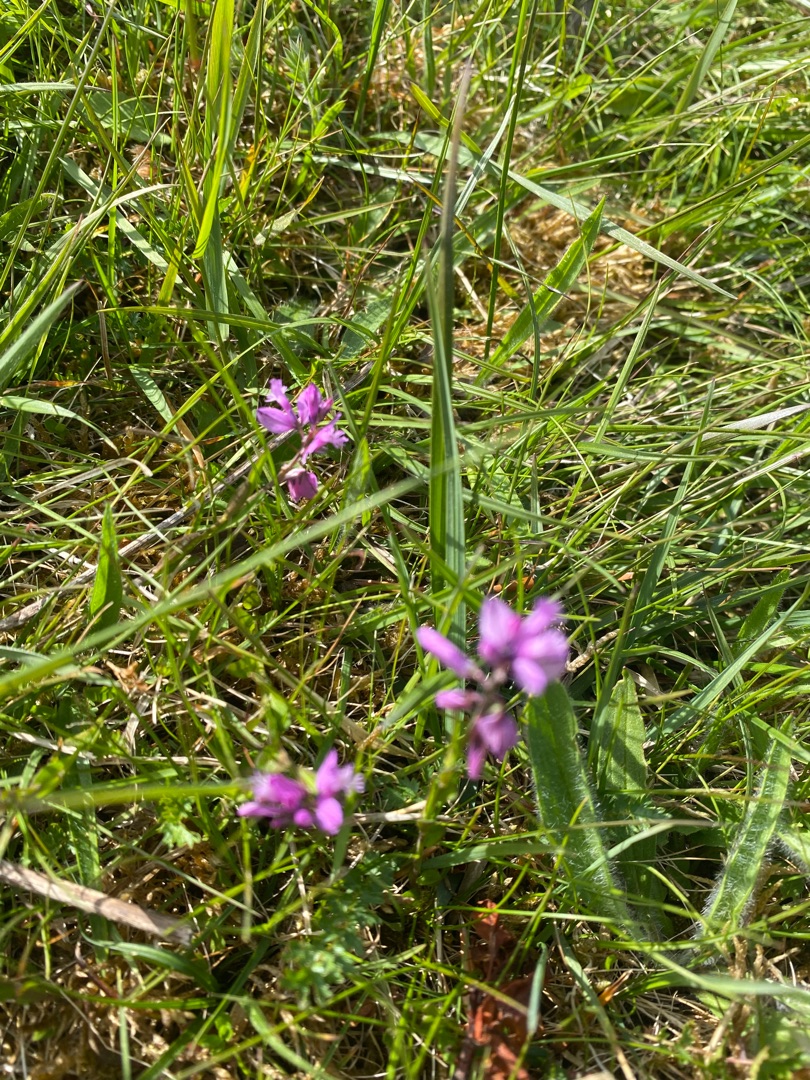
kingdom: Plantae
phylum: Tracheophyta
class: Magnoliopsida
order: Fabales
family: Polygalaceae
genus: Polygala
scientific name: Polygala vulgaris
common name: Almindelig mælkeurt
